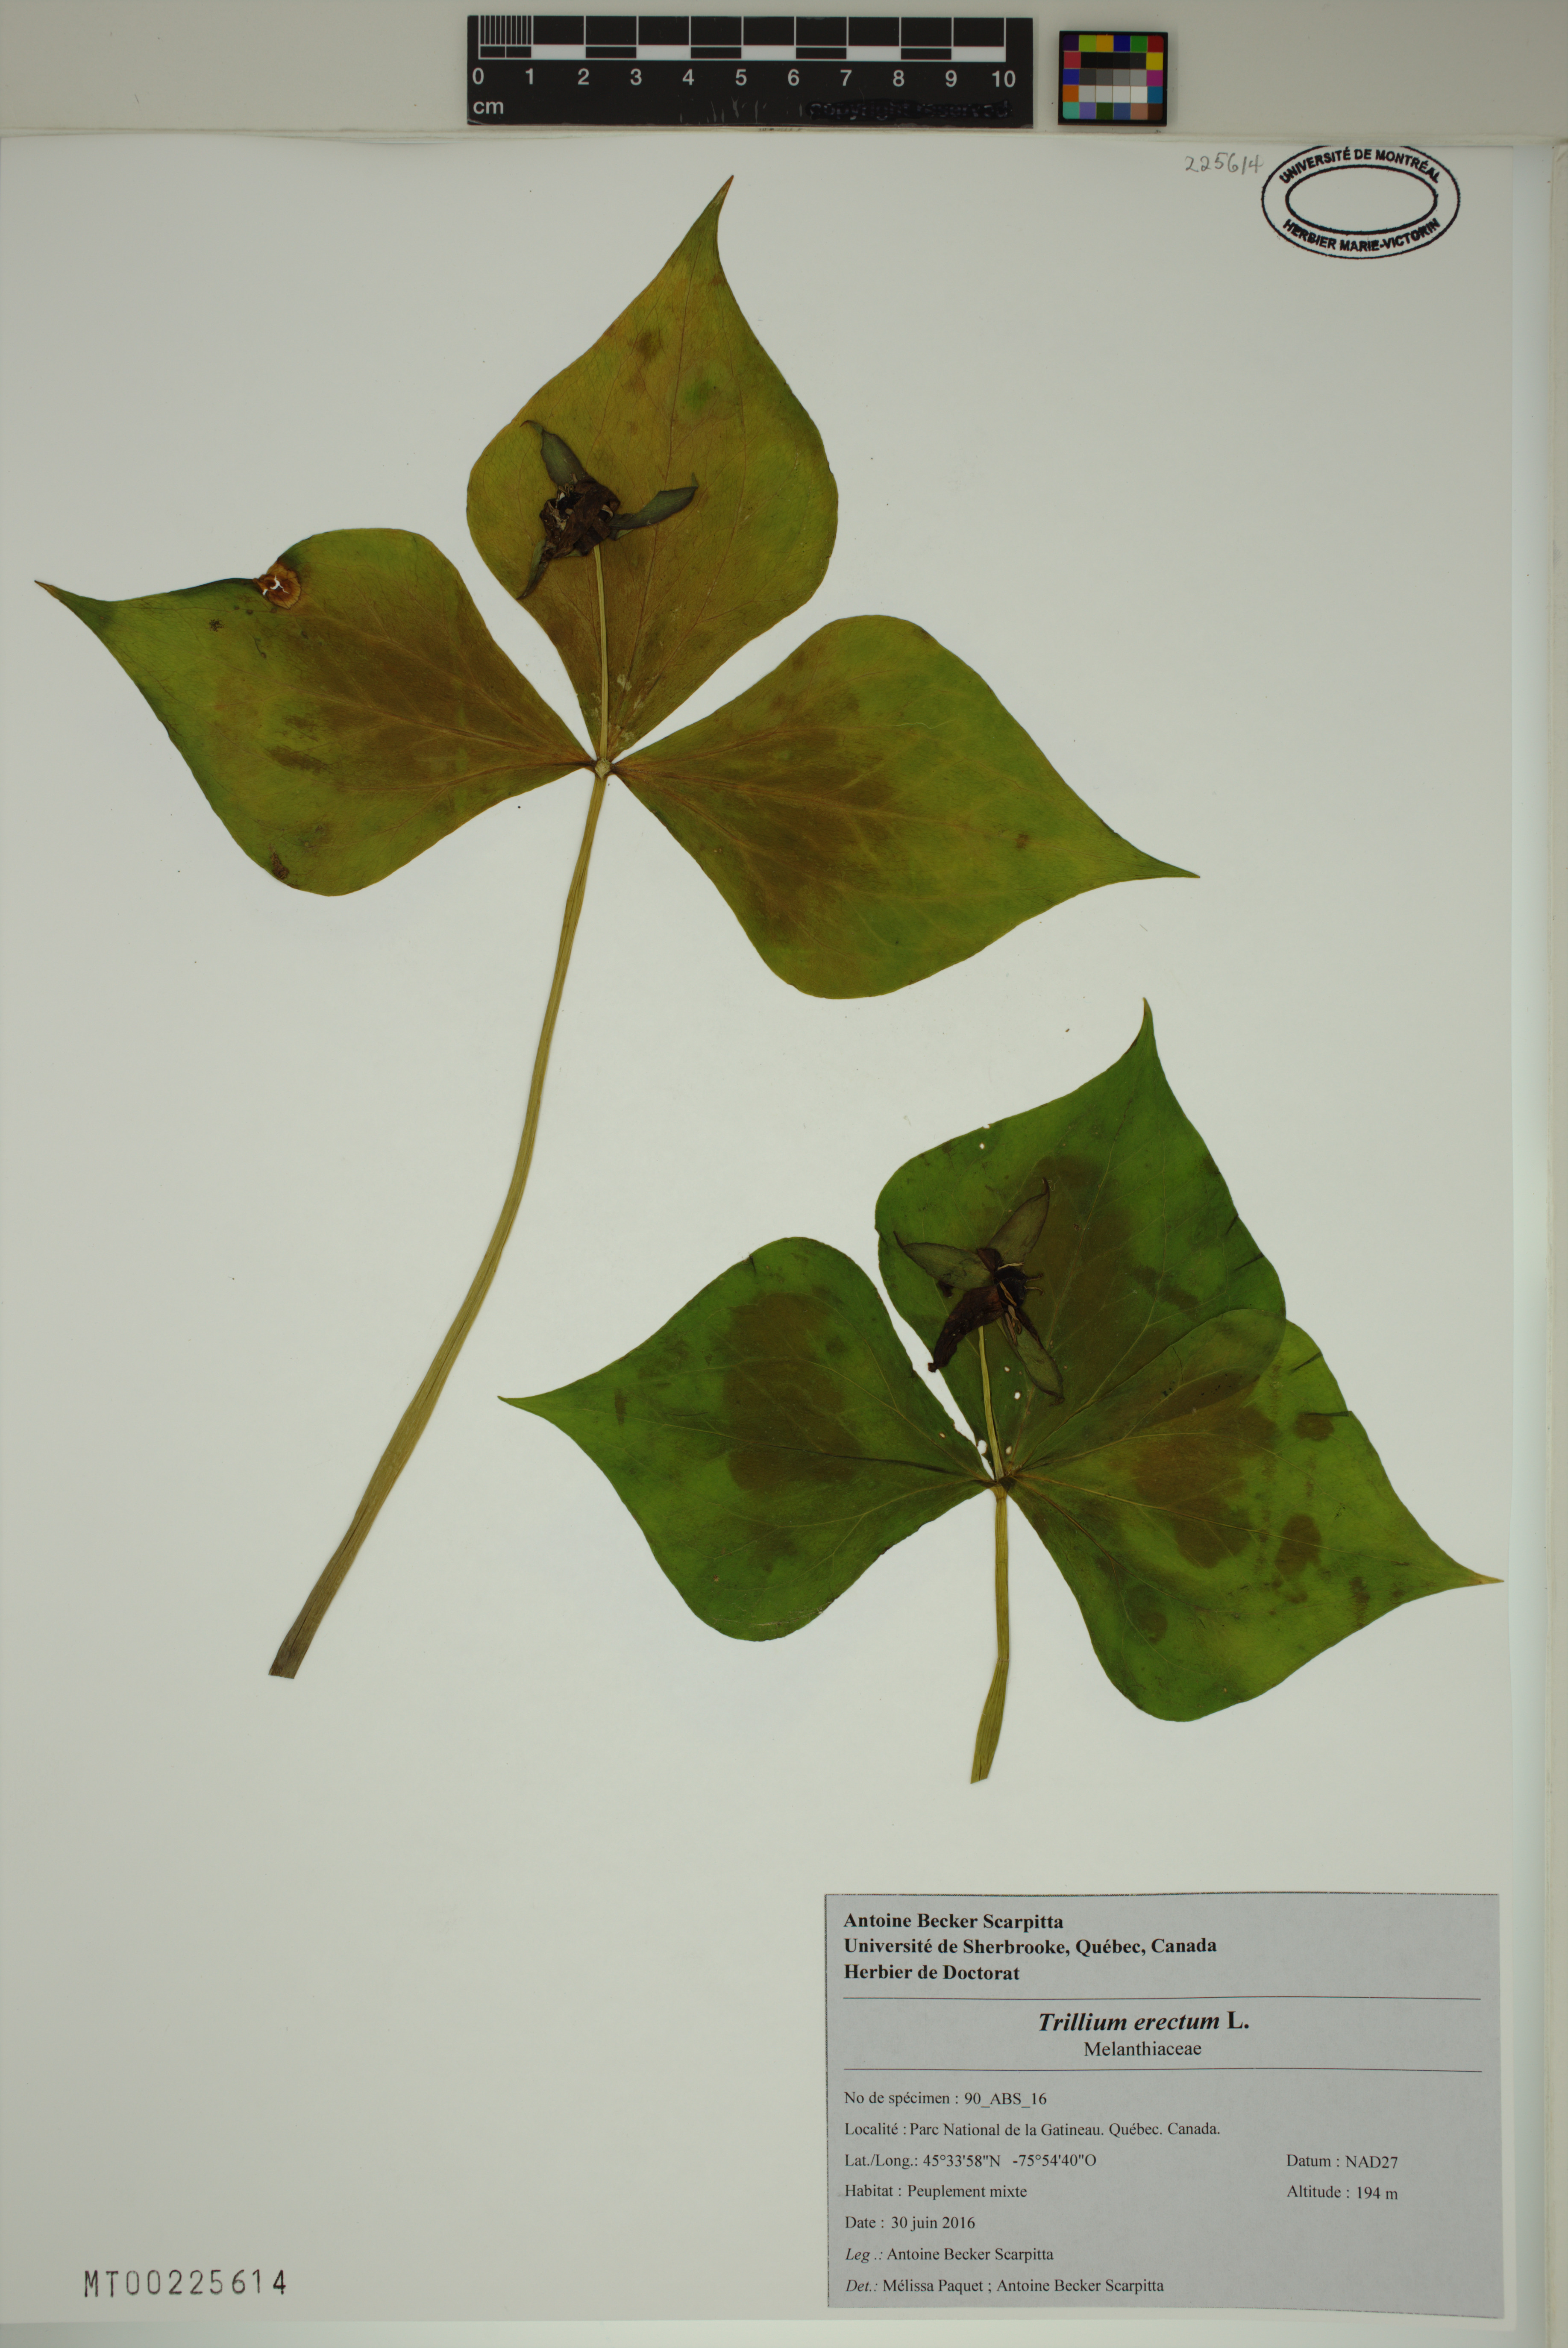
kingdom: Plantae
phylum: Tracheophyta
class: Liliopsida
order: Liliales
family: Melanthiaceae
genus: Trillium
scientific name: Trillium erectum
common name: Purple trillium
